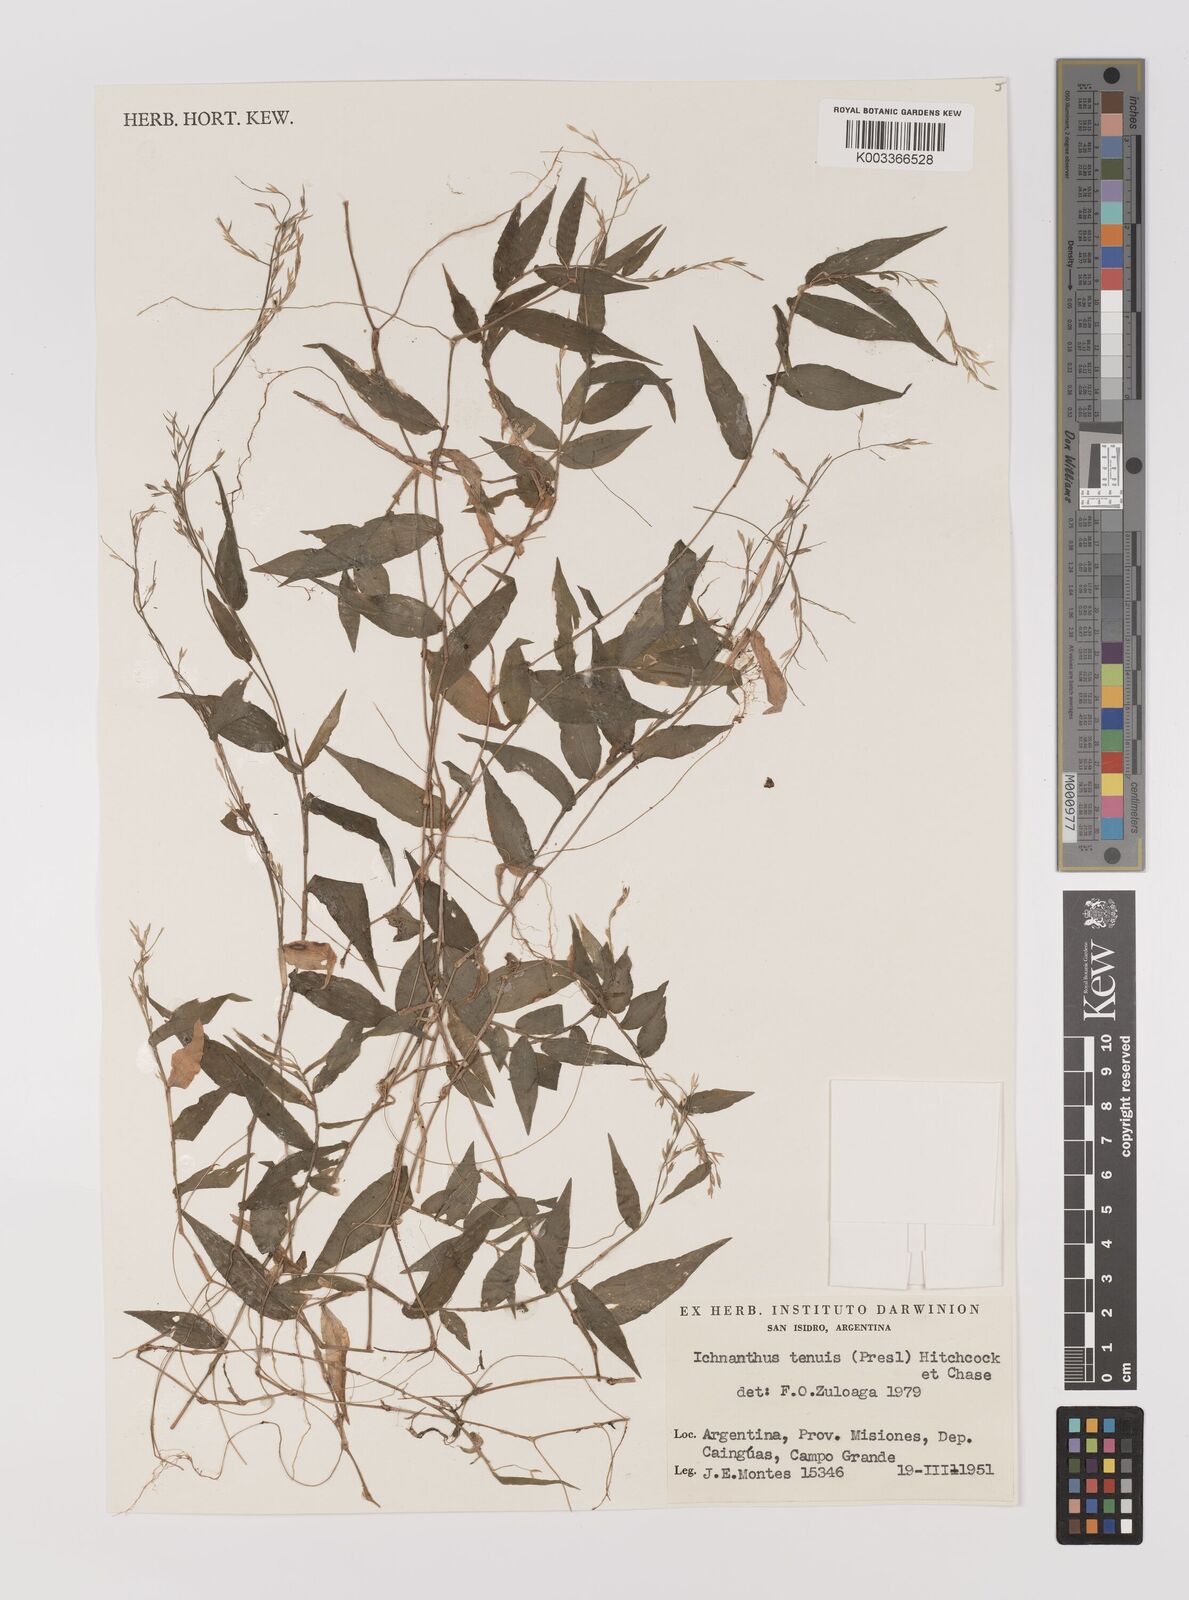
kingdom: Plantae
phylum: Tracheophyta
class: Liliopsida
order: Poales
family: Poaceae
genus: Ichnanthus
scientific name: Ichnanthus tenuis
